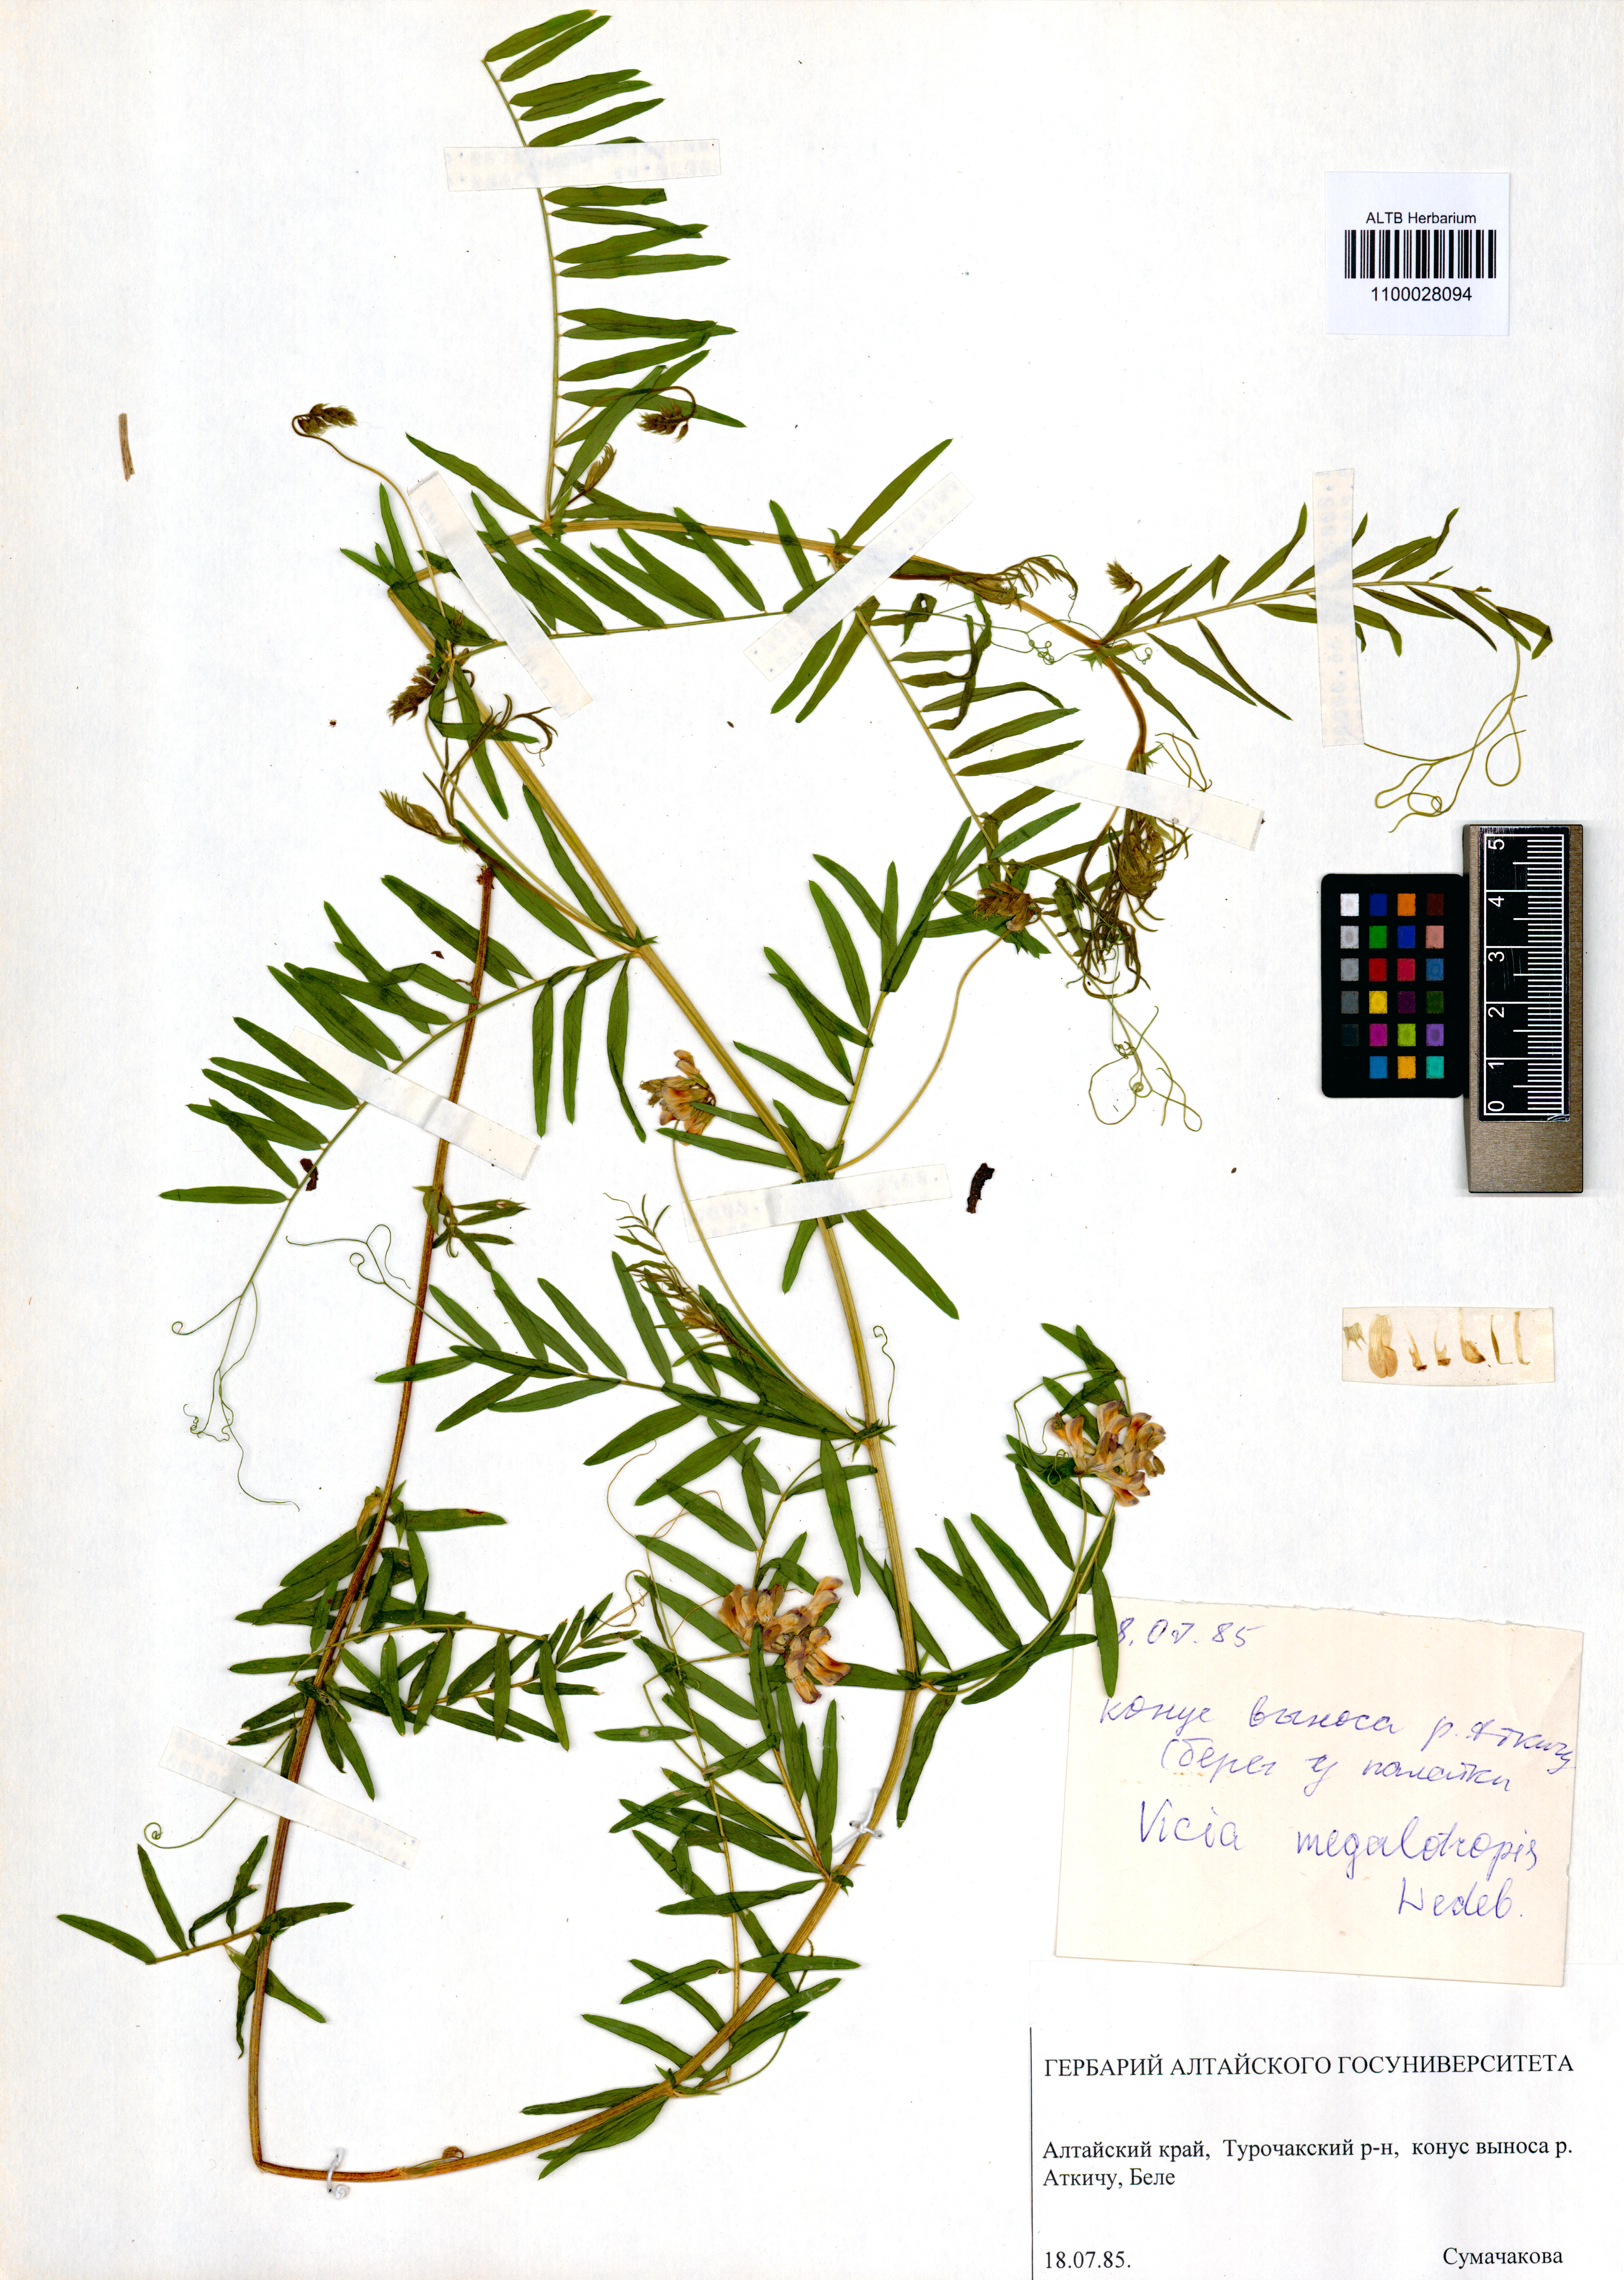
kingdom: Plantae
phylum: Tracheophyta
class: Magnoliopsida
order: Fabales
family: Fabaceae
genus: Vicia
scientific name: Vicia megalotropis
